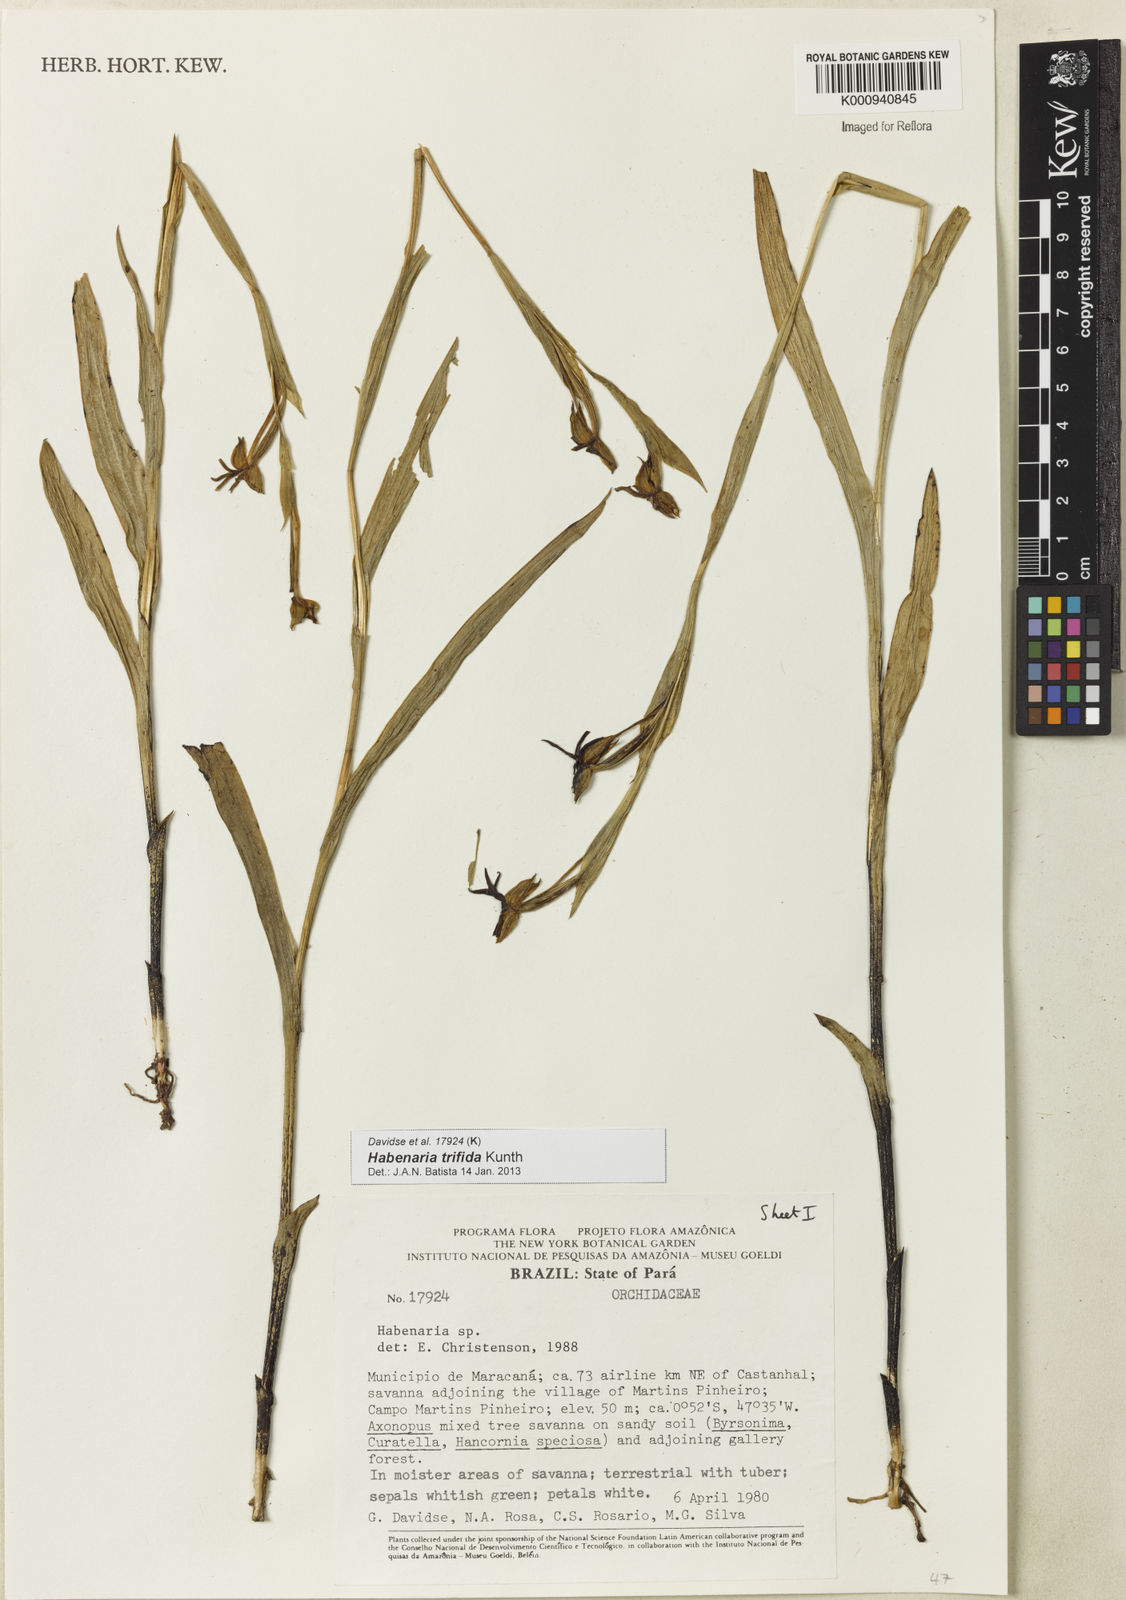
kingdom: Plantae
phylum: Tracheophyta
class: Liliopsida
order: Asparagales
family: Orchidaceae
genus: Habenaria
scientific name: Habenaria trifida
